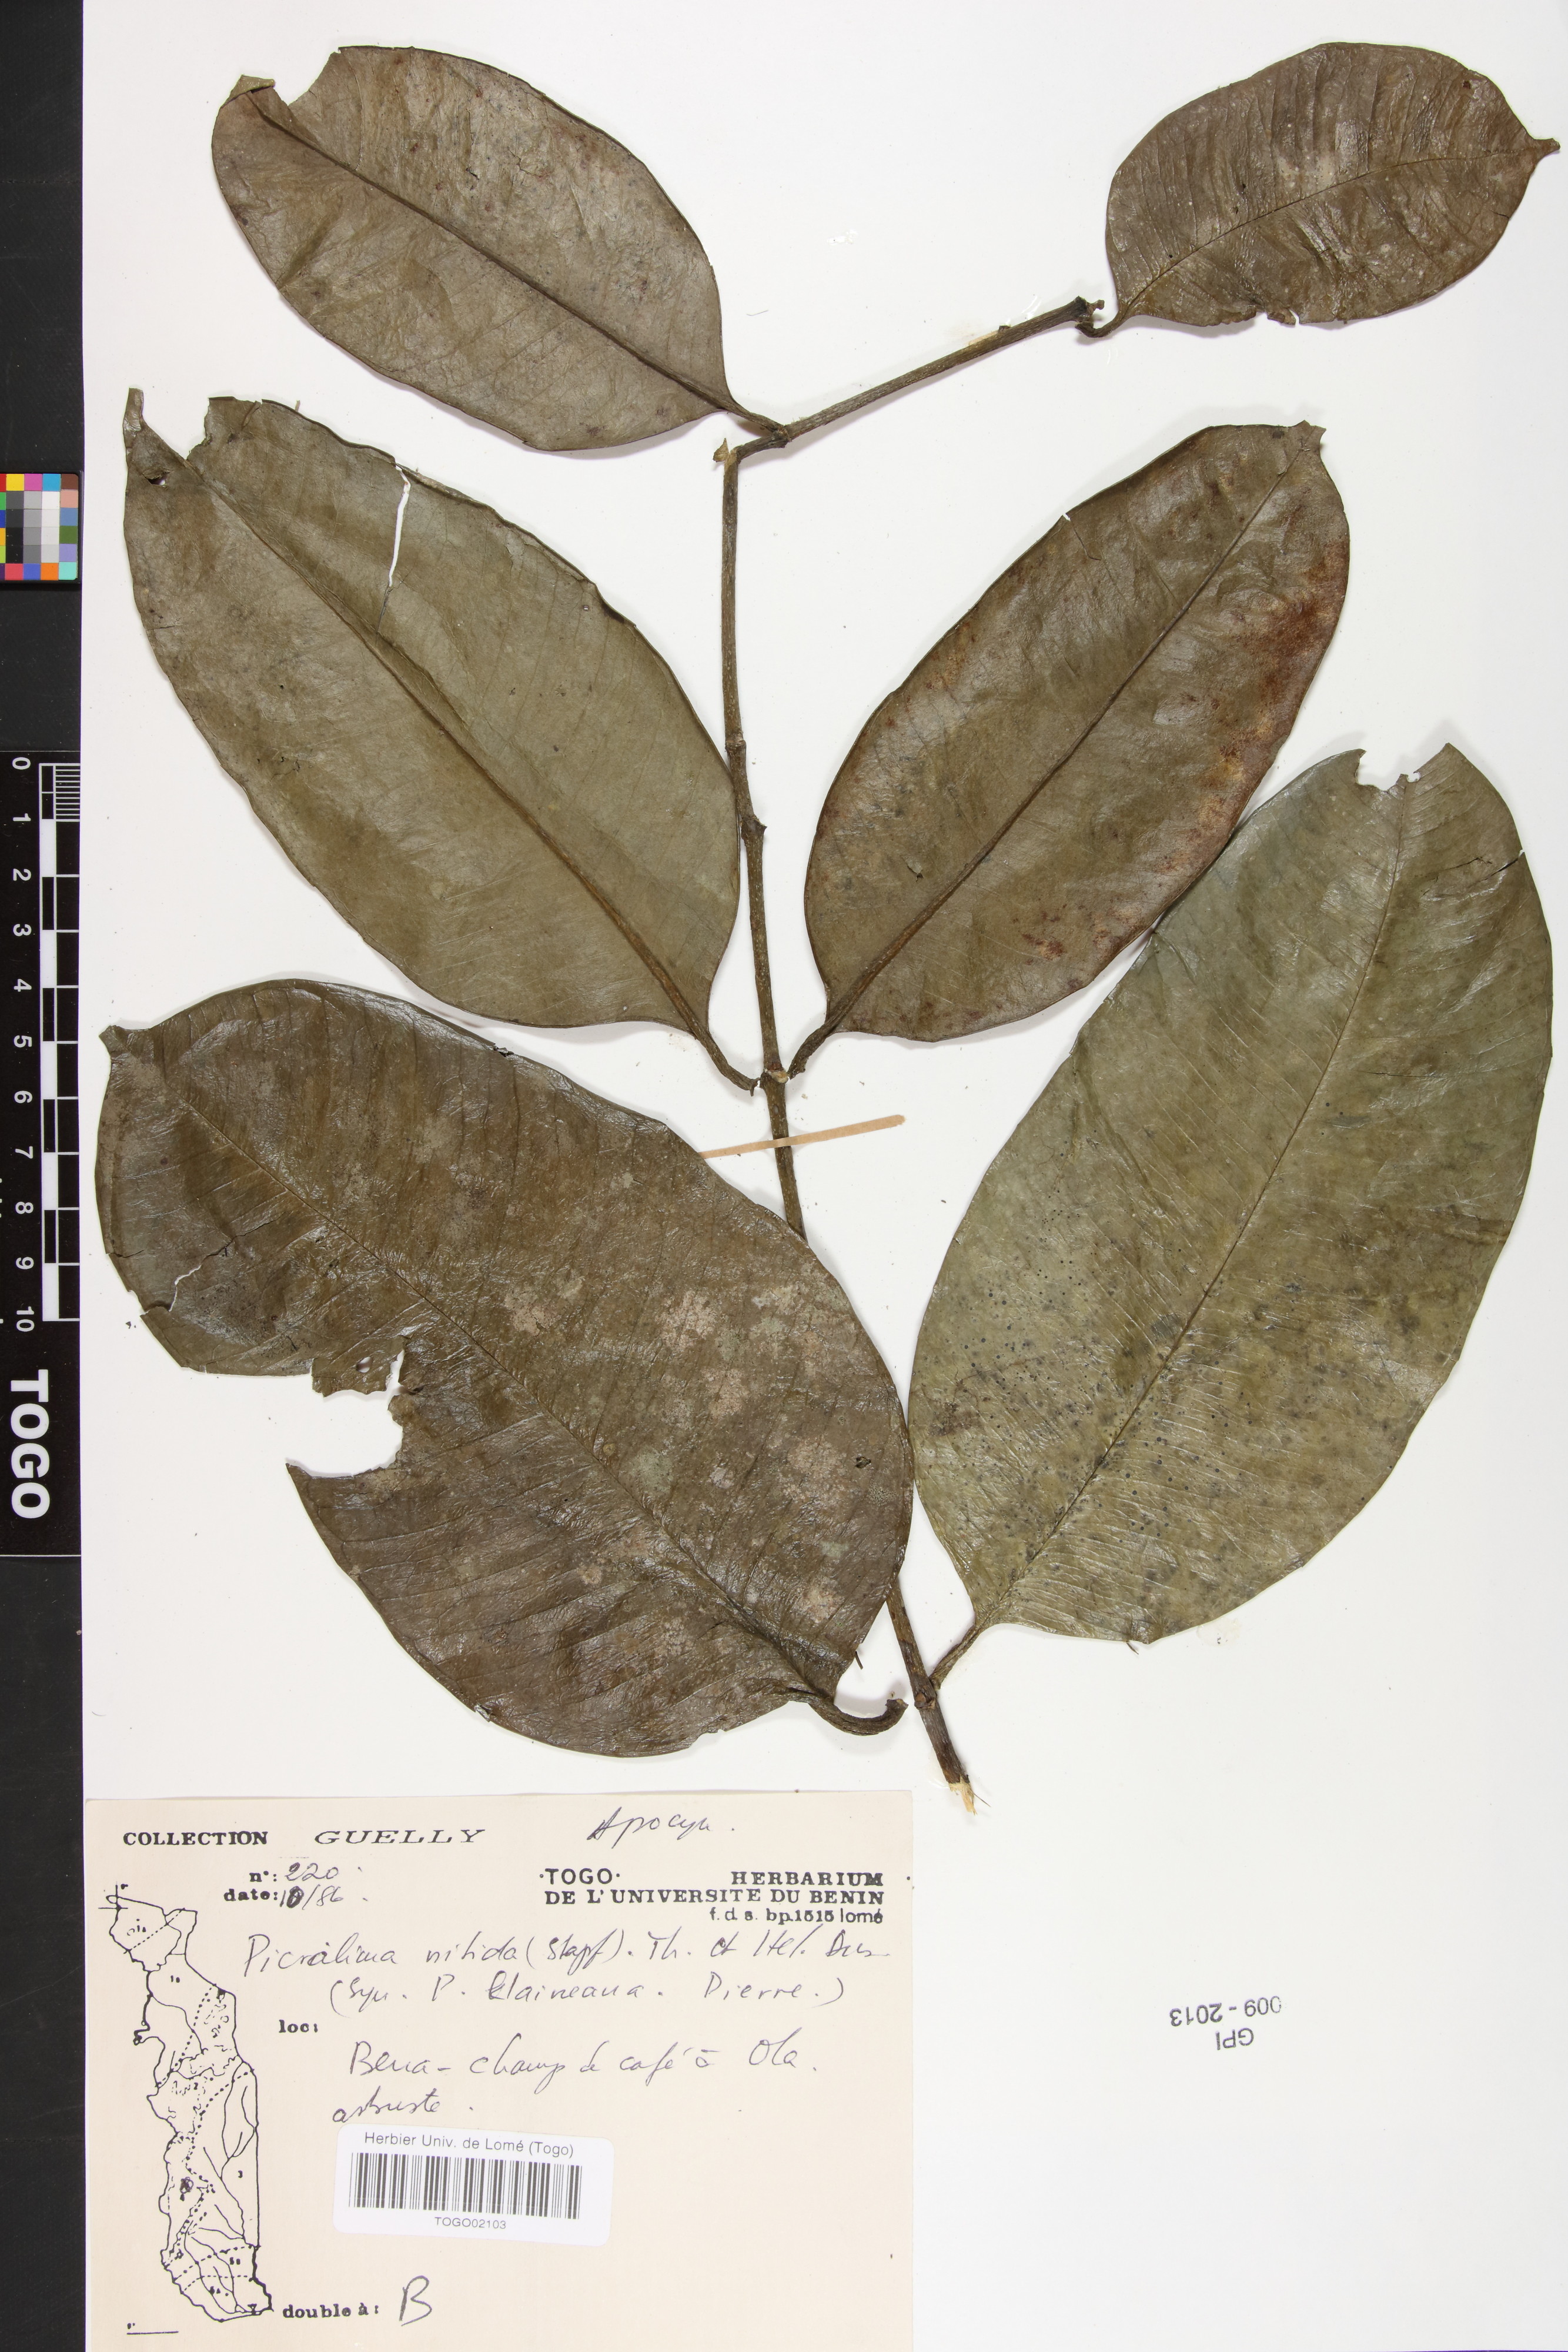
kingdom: Plantae
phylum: Tracheophyta
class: Magnoliopsida
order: Gentianales
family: Apocynaceae
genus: Picralima
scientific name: Picralima nitida
